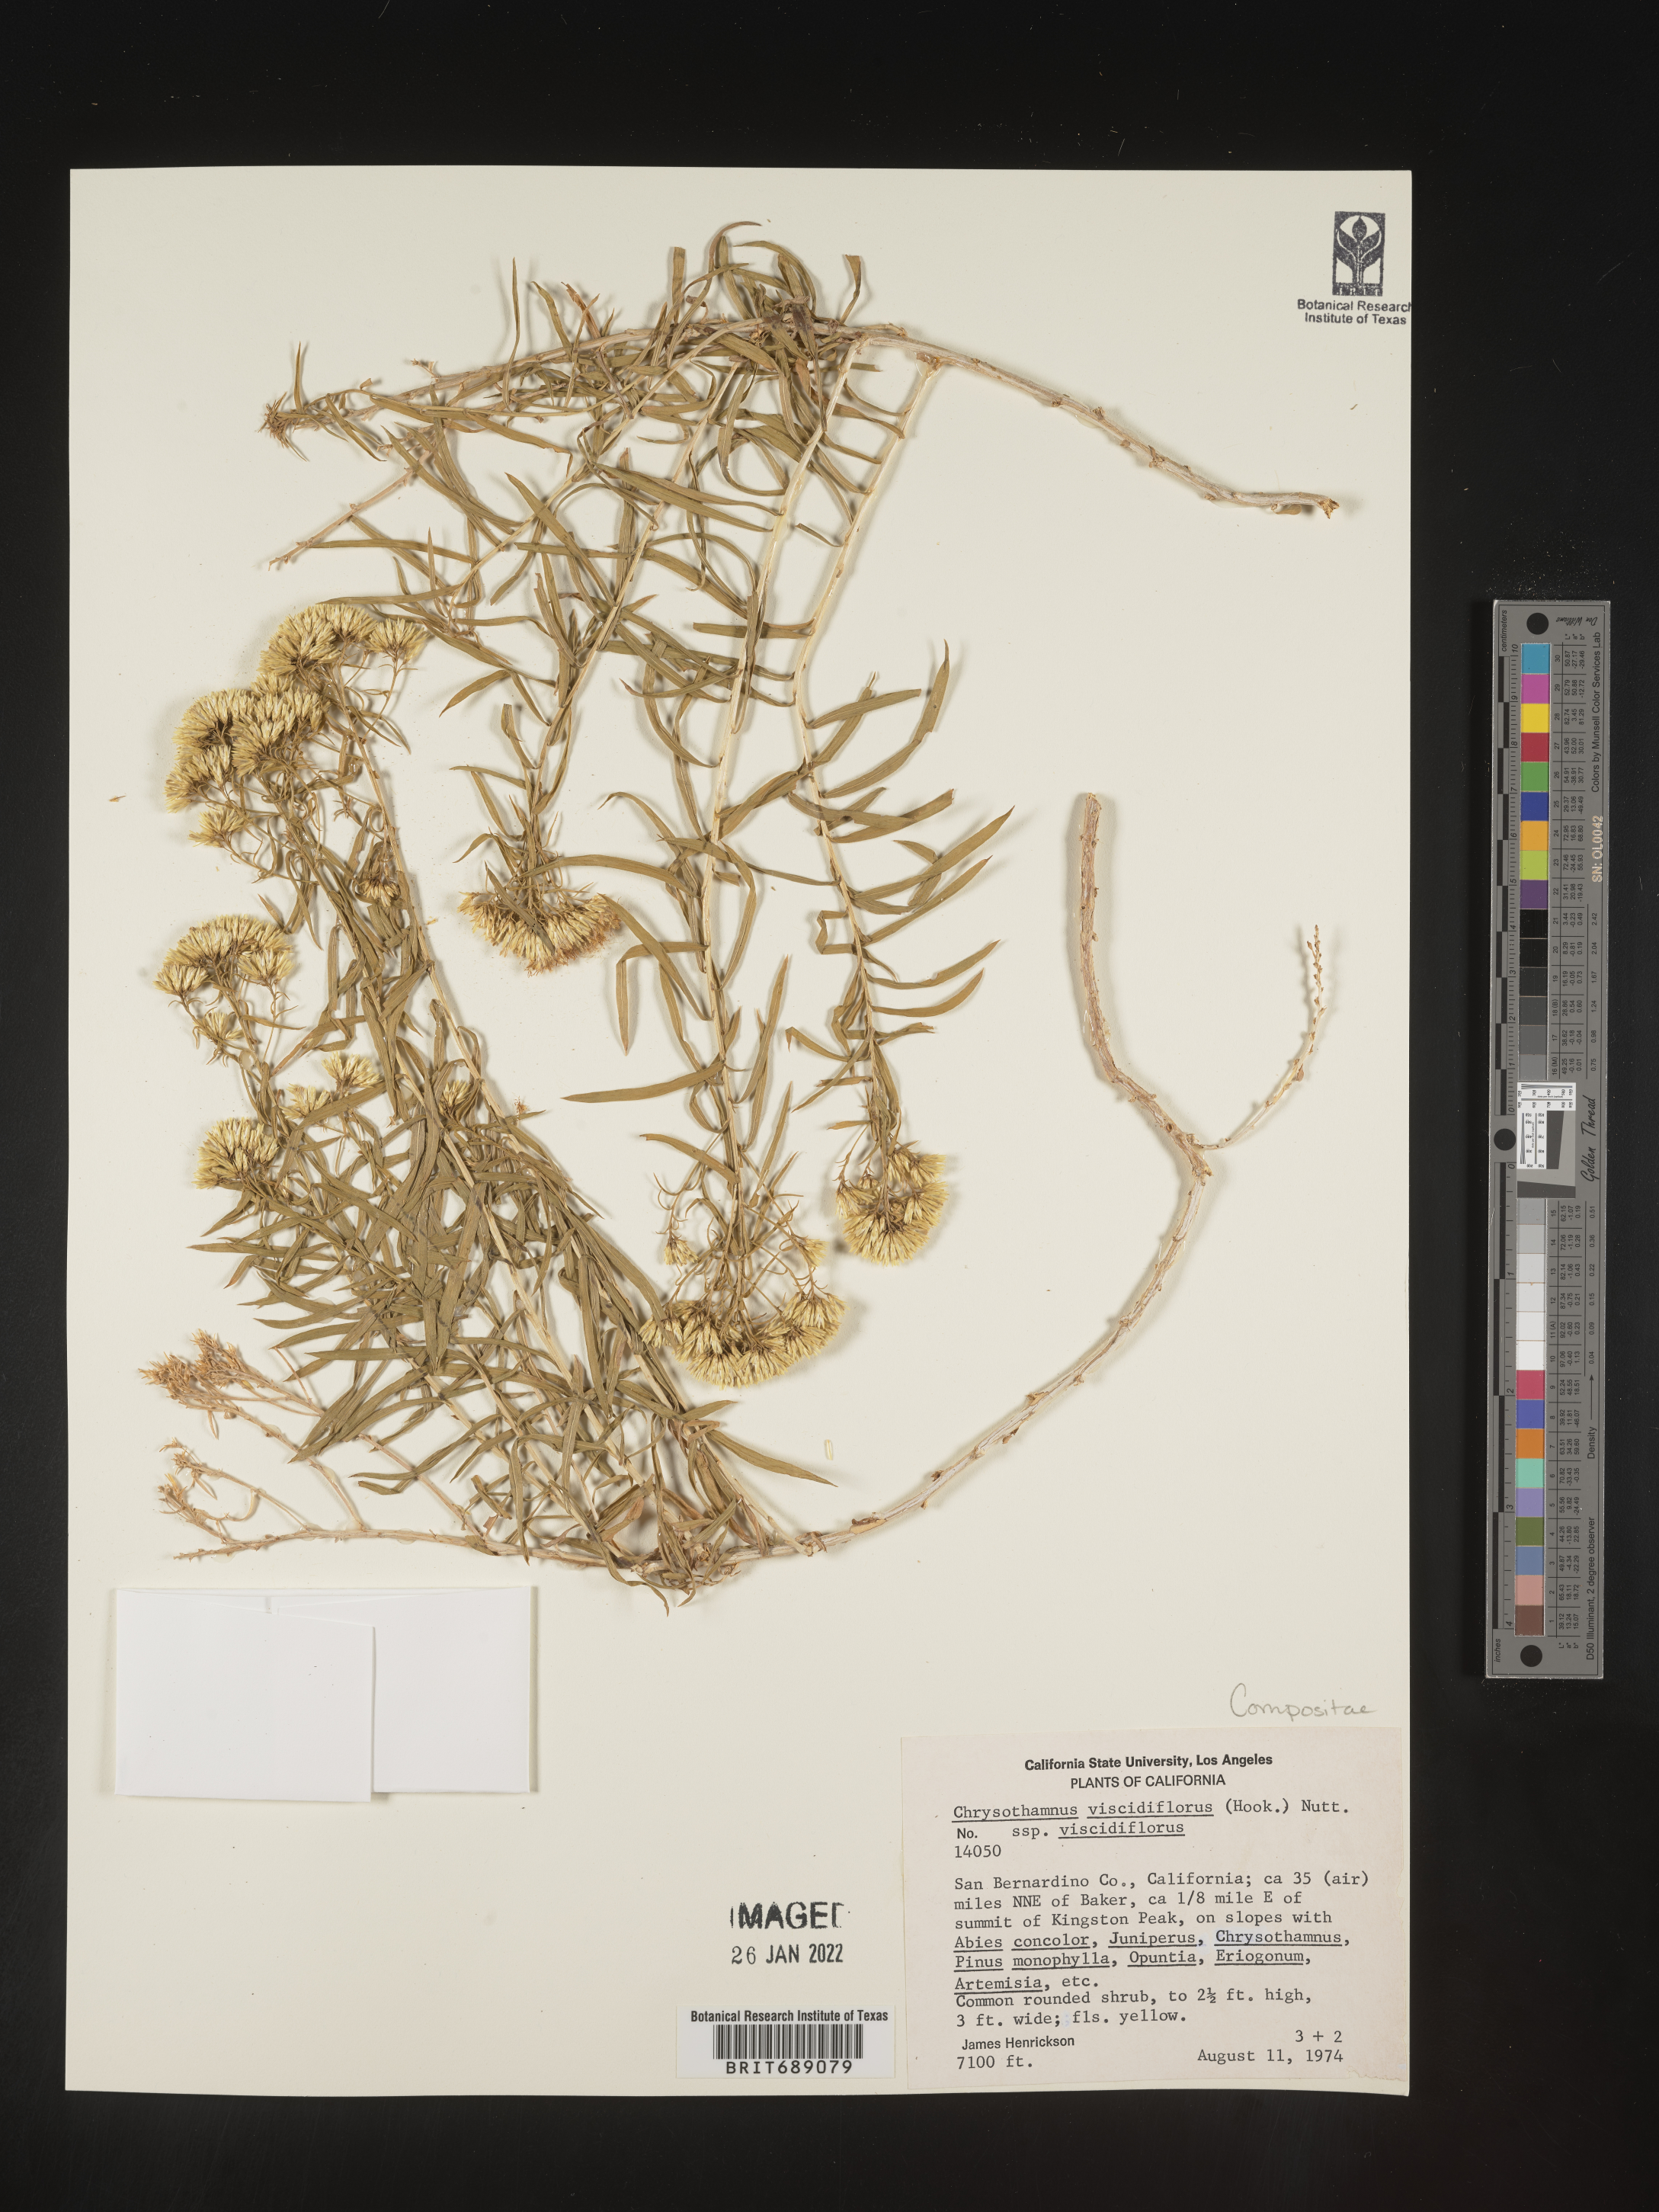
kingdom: Plantae
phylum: Tracheophyta
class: Magnoliopsida
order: Asterales
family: Asteraceae
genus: Chrysothamnus
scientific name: Chrysothamnus viscidiflorus
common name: Yellow rabbitbrush
